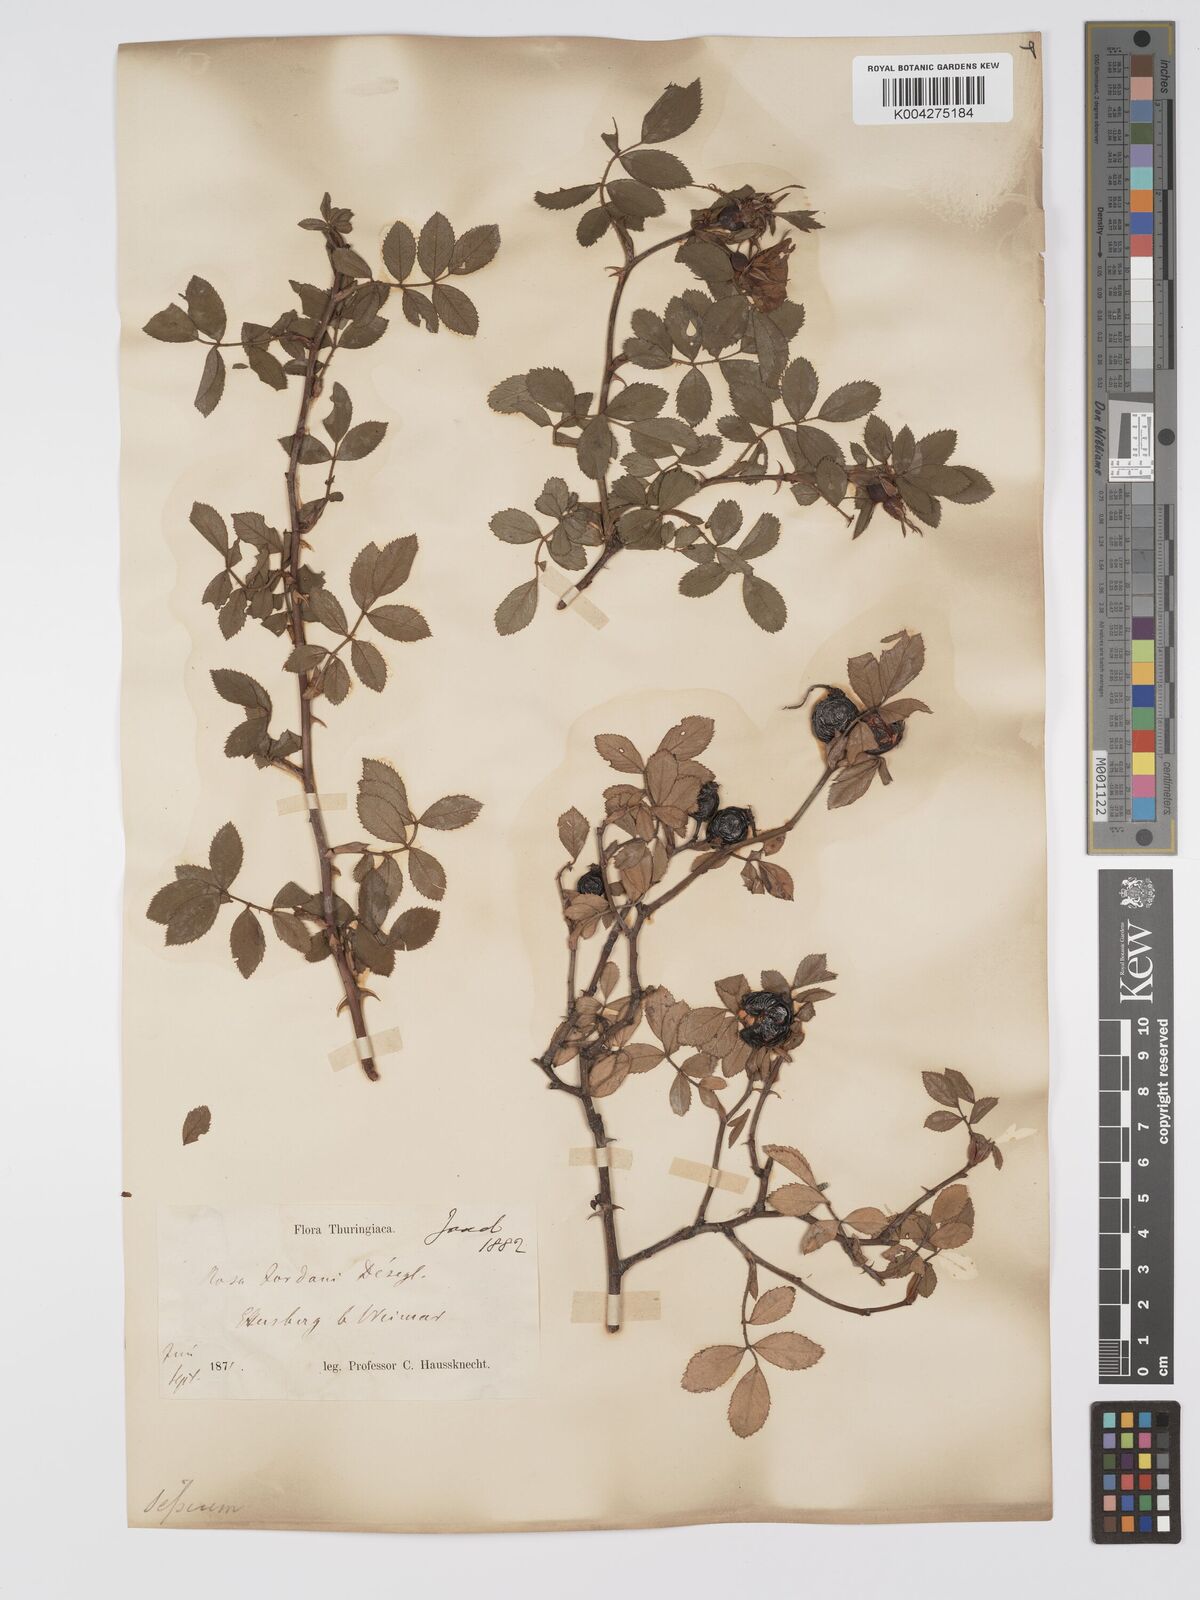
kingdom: Plantae
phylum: Tracheophyta
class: Magnoliopsida
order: Rosales
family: Rosaceae
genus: Rosa
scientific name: Rosa
